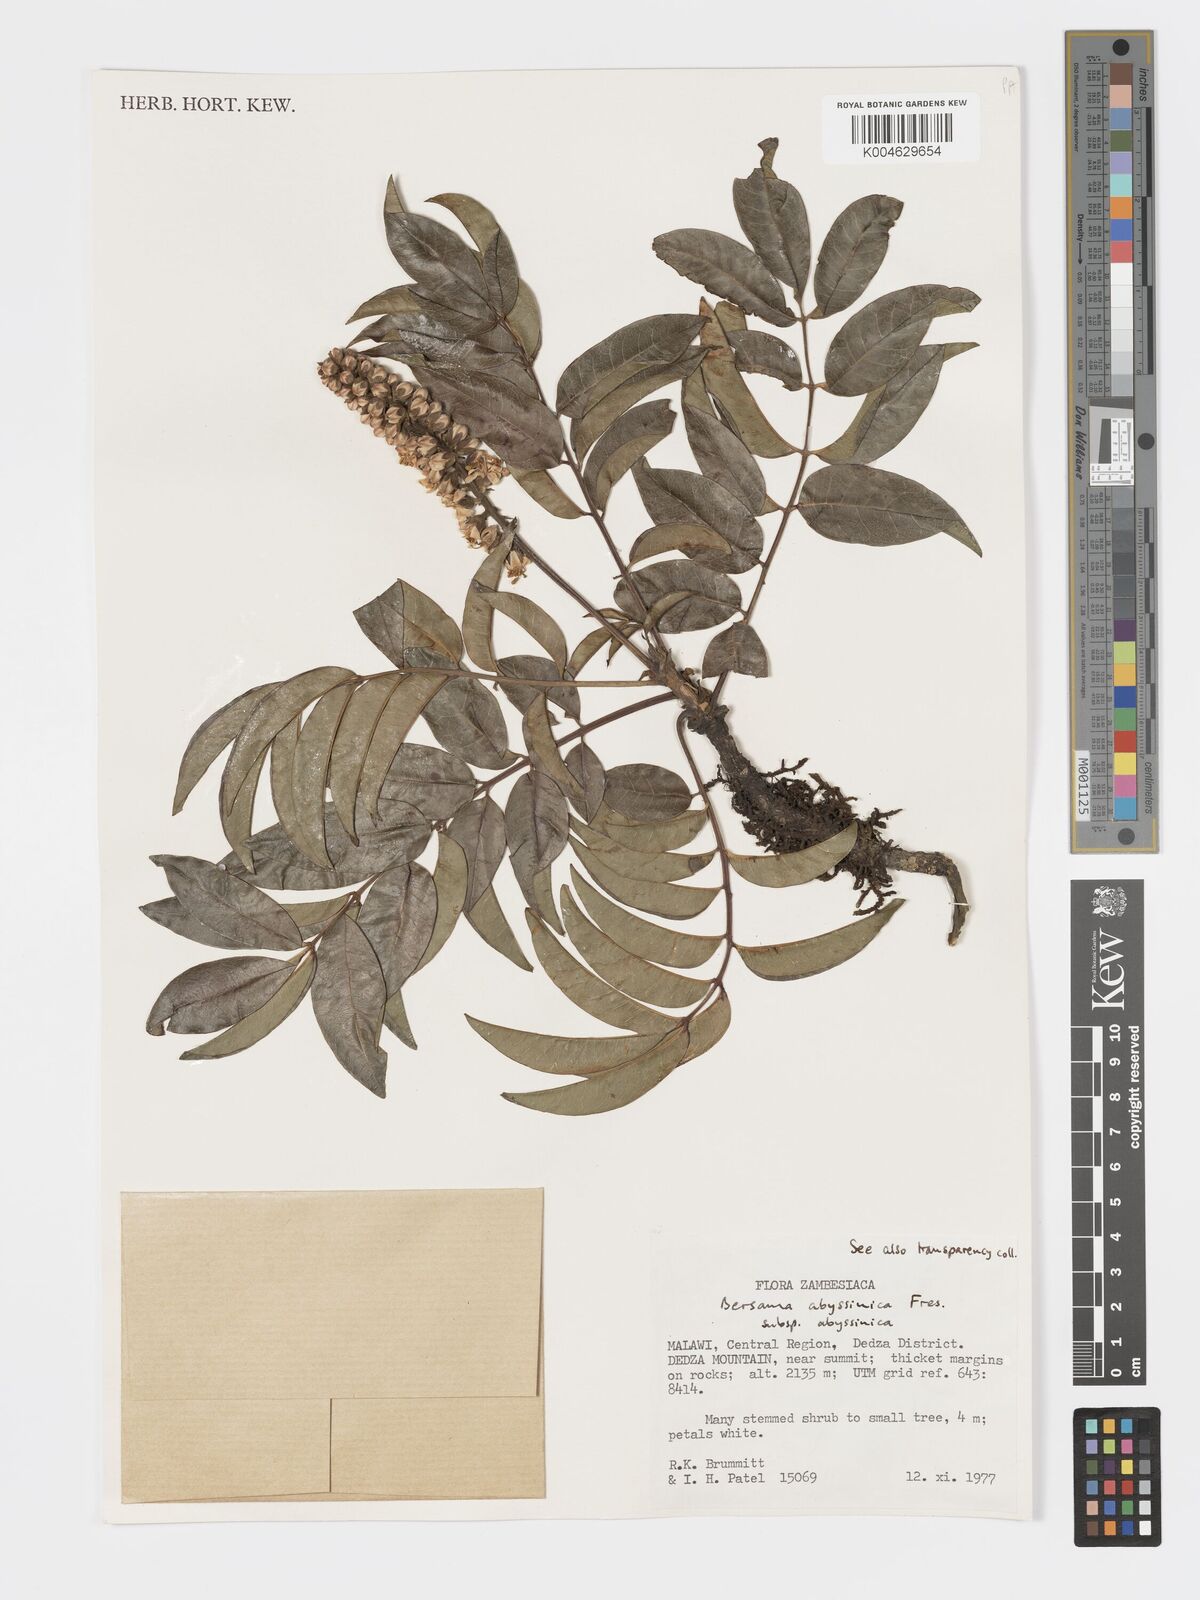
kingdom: Plantae
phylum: Tracheophyta
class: Magnoliopsida
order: Geraniales
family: Francoaceae
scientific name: Francoaceae
